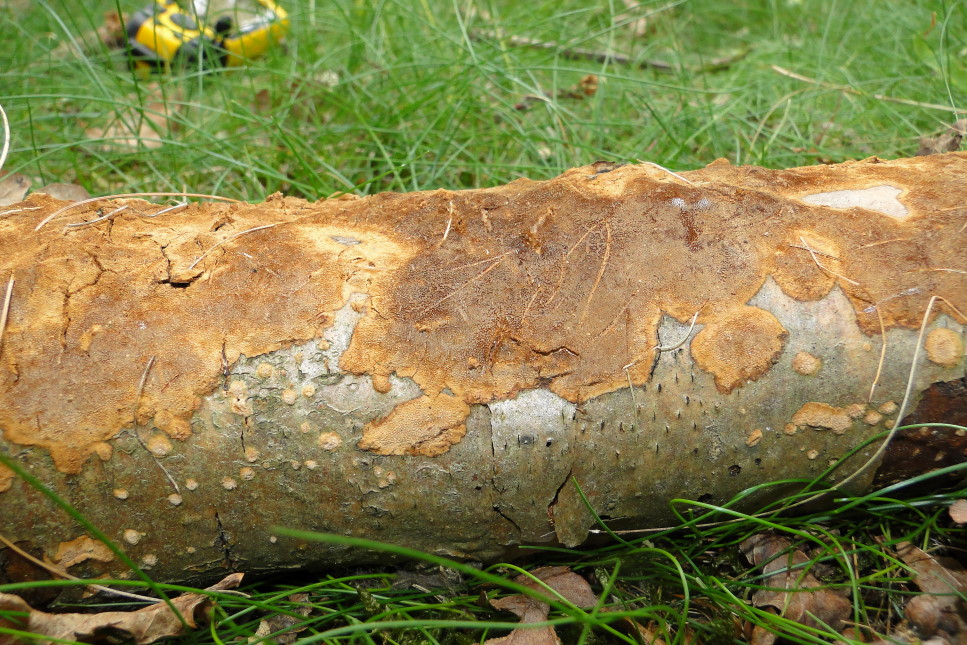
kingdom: Fungi
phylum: Basidiomycota
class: Agaricomycetes
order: Hymenochaetales
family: Hymenochaetaceae
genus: Fuscoporia
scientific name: Fuscoporia ferrea
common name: skorpe-ildporesvamp
